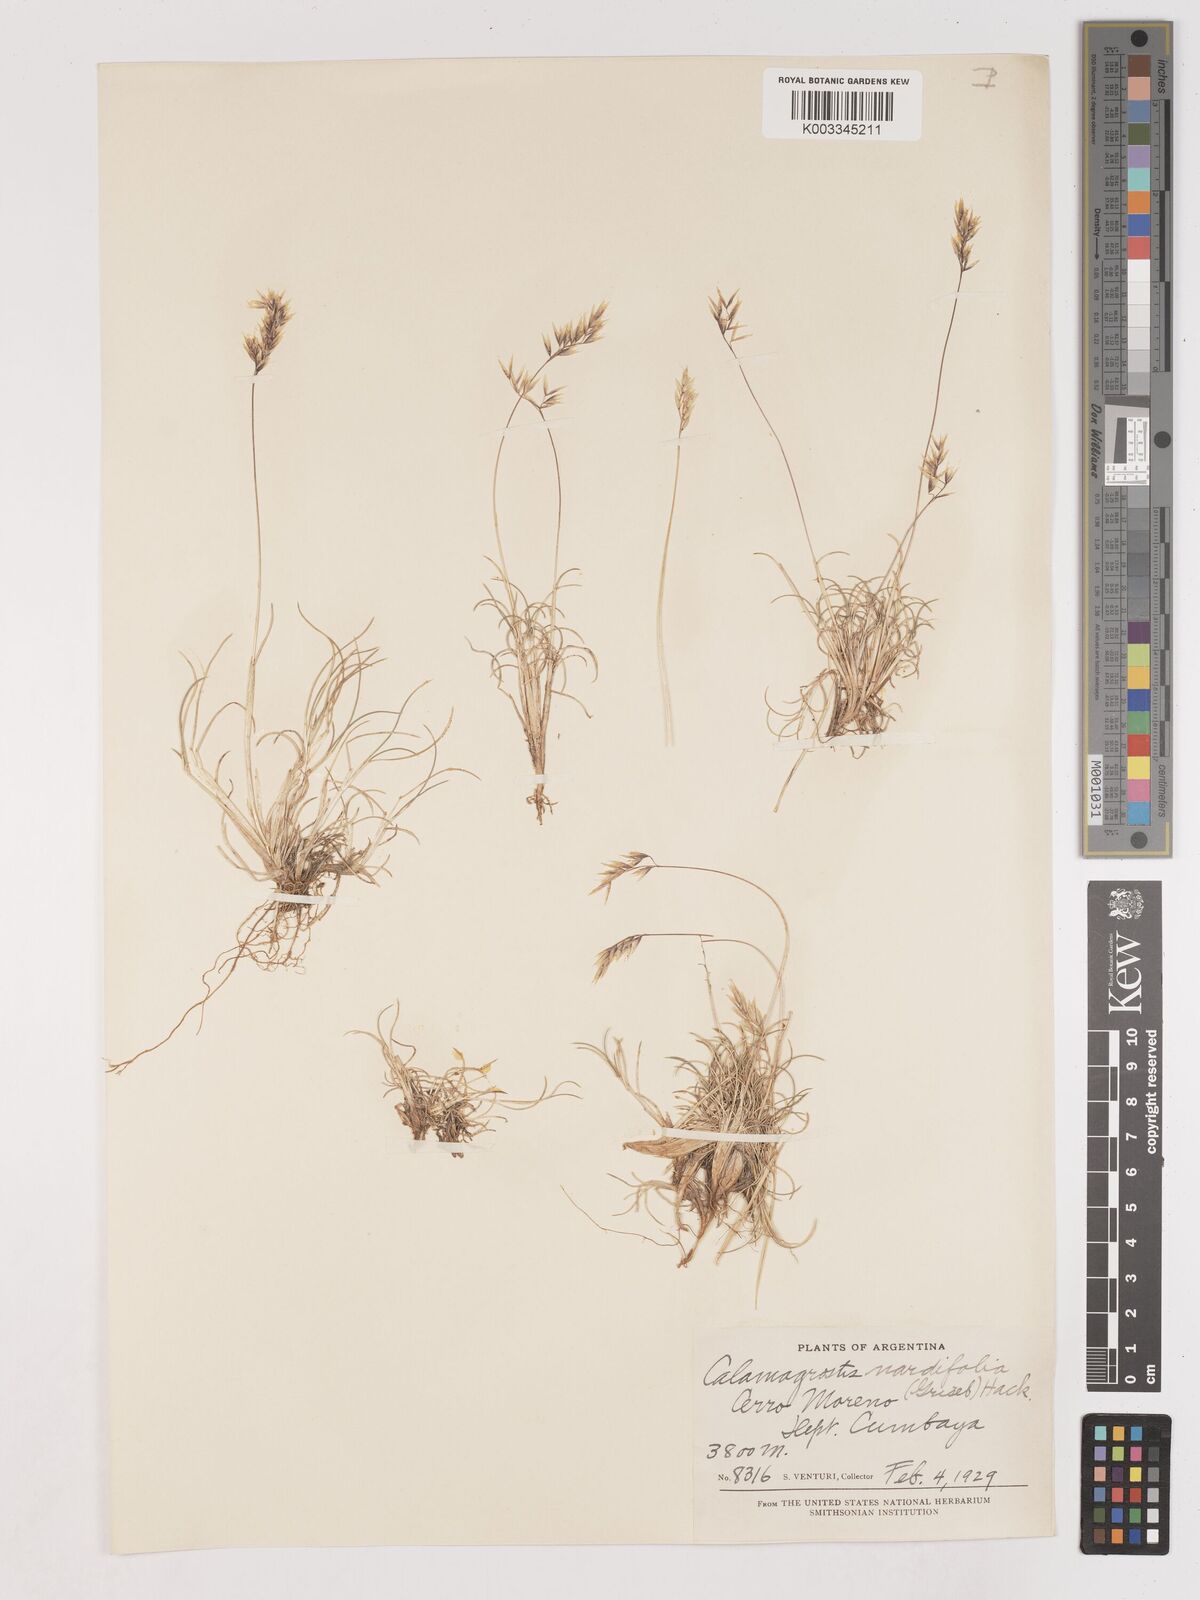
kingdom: Plantae
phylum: Tracheophyta
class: Liliopsida
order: Poales
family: Poaceae
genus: Cinnagrostis
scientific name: Cinnagrostis velutina
